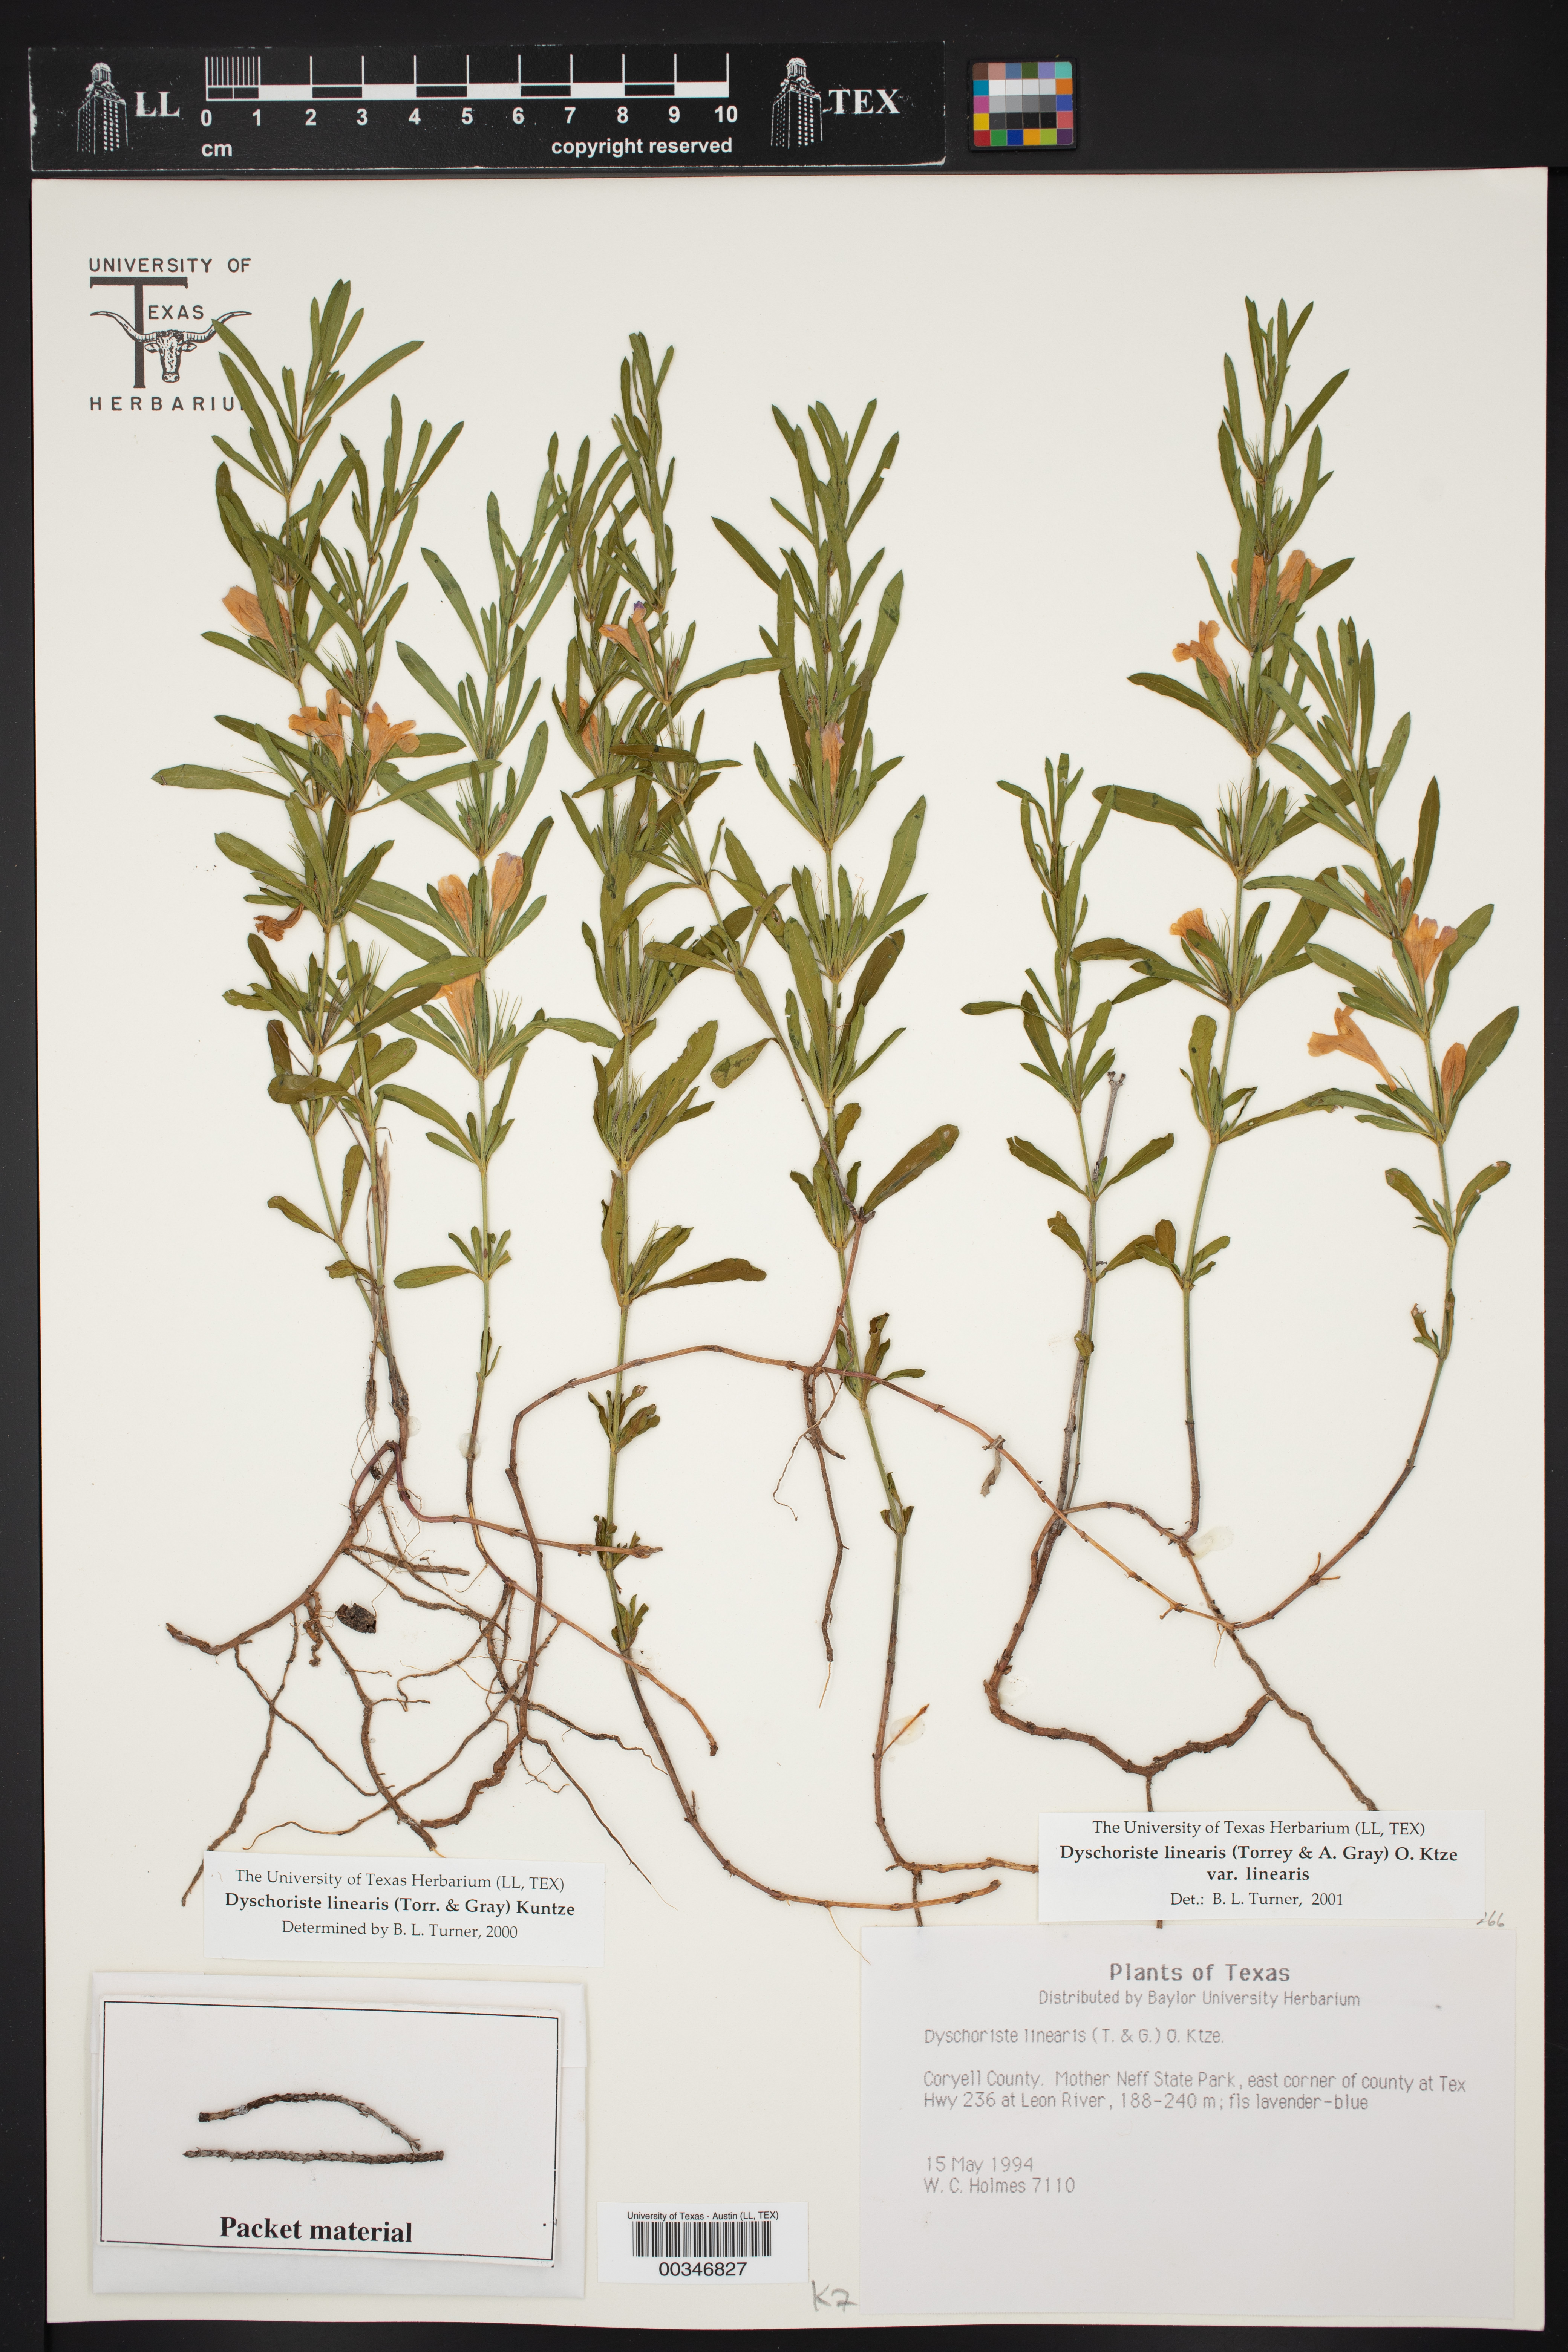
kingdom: Plantae
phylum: Tracheophyta
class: Magnoliopsida
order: Lamiales
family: Acanthaceae
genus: Dyschoriste
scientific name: Dyschoriste linearis
